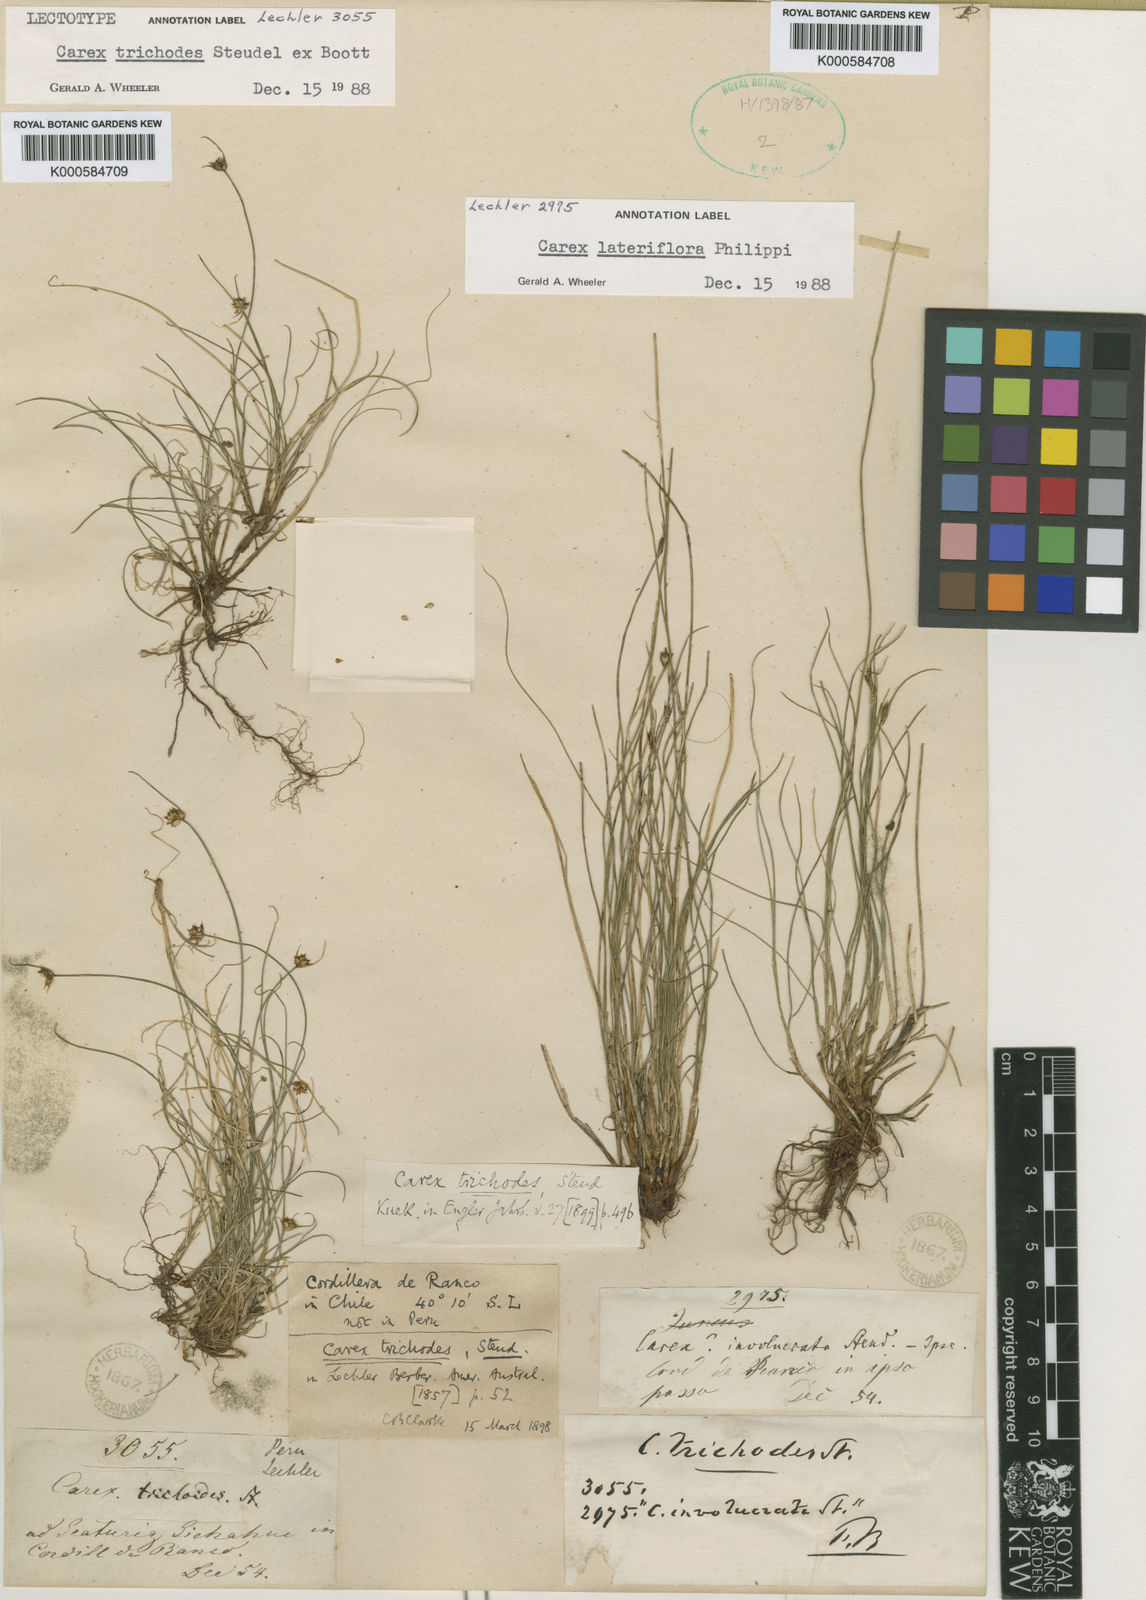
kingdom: Plantae
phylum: Tracheophyta
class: Liliopsida
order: Poales
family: Cyperaceae
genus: Carex
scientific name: Carex trichodes
